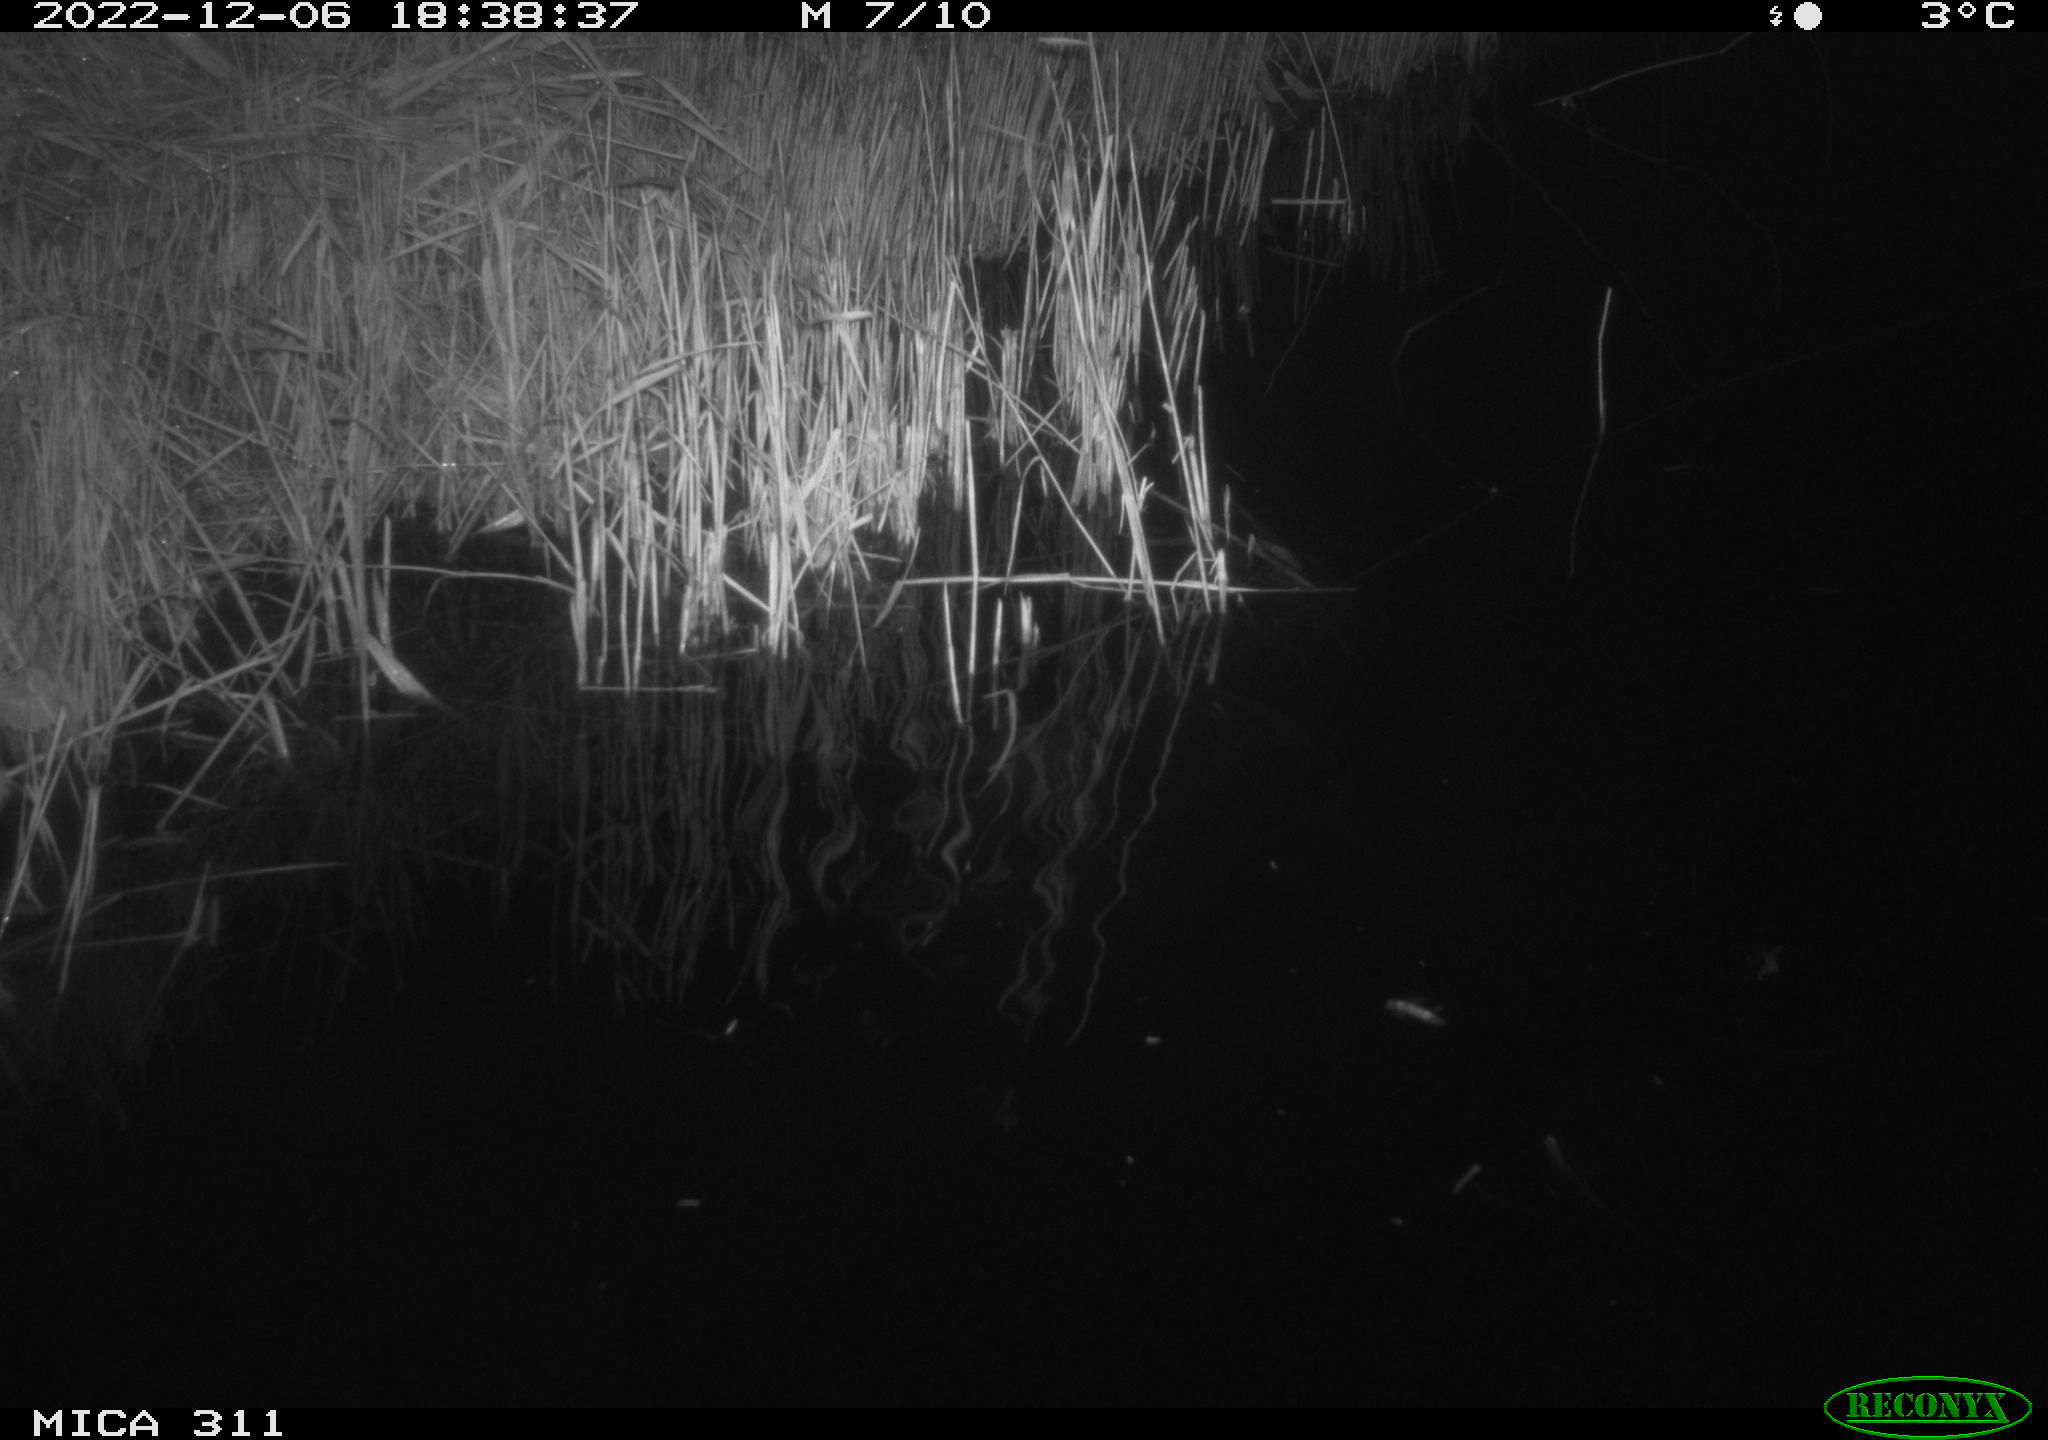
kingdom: Animalia
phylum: Chordata
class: Mammalia
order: Rodentia
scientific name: Rodentia
